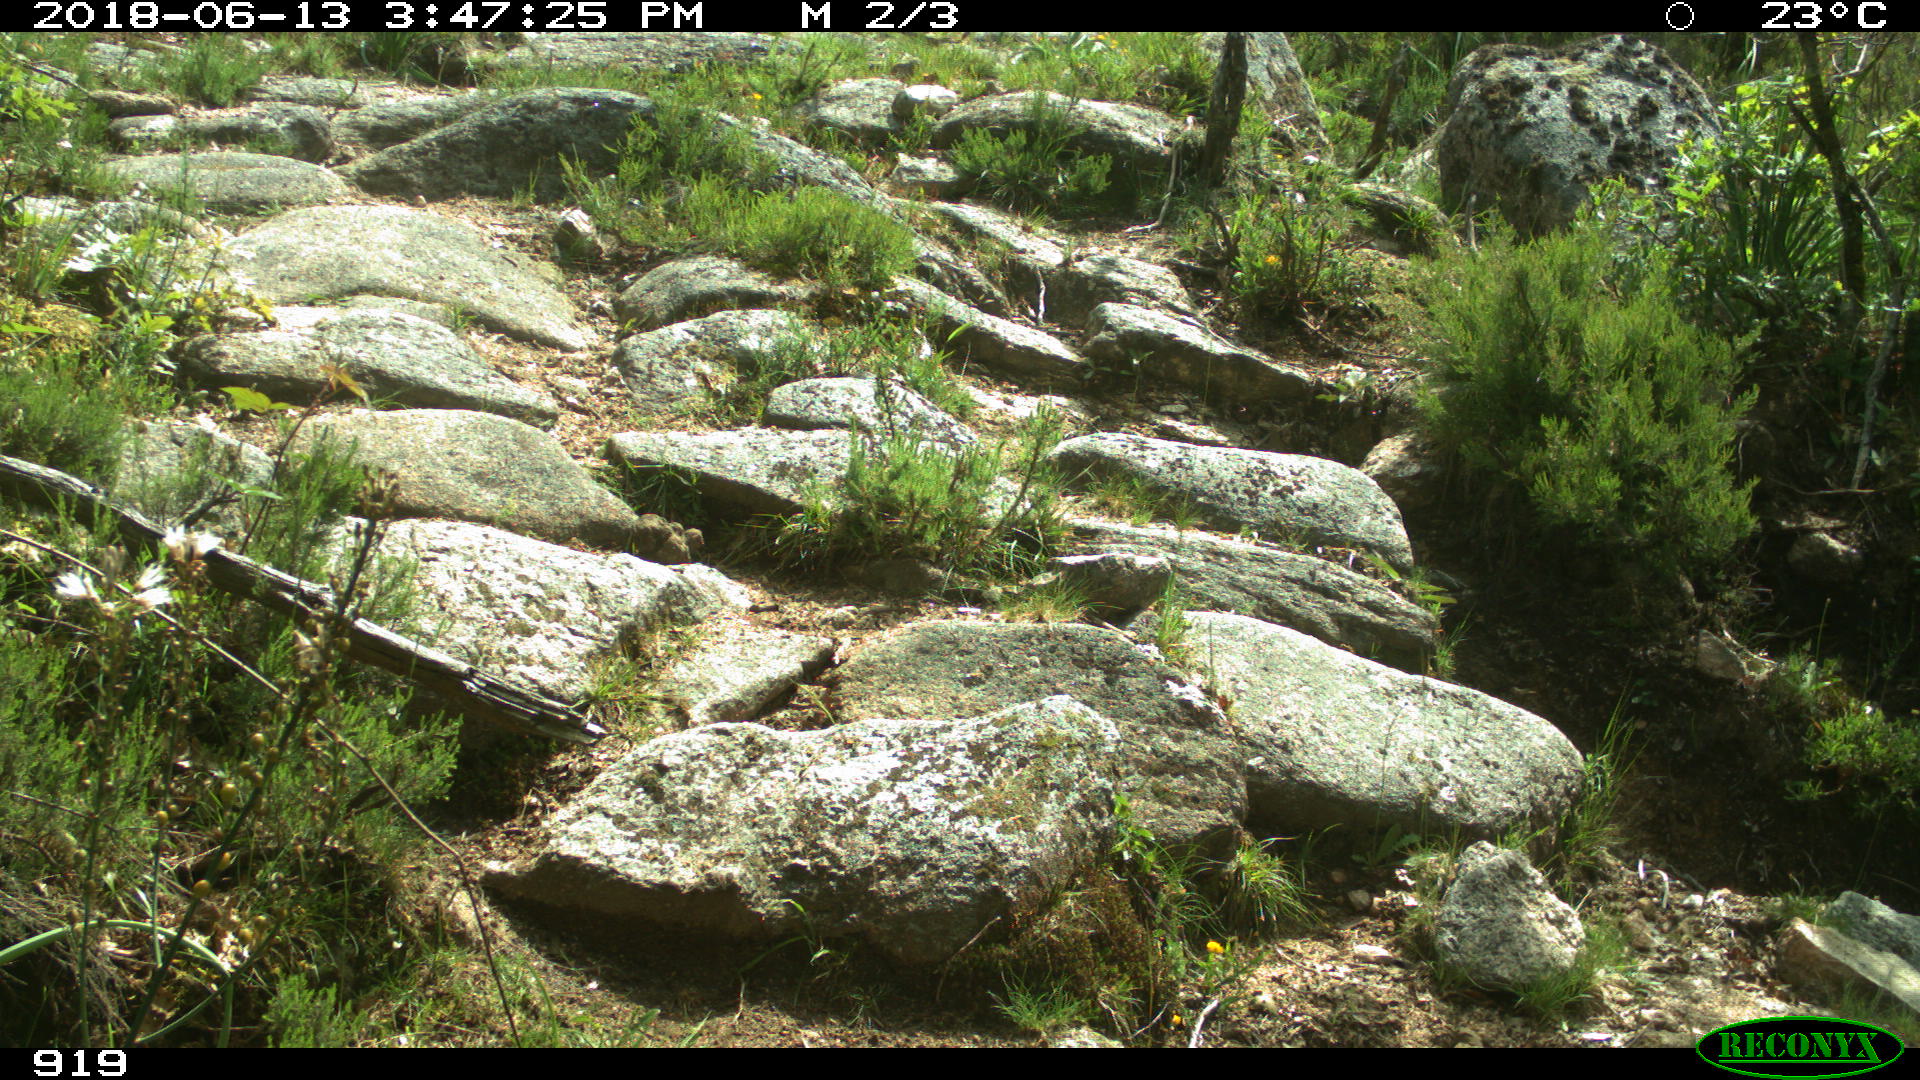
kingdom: Animalia
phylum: Chordata
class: Mammalia
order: Artiodactyla
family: Bovidae
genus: Bos
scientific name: Bos taurus
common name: Domesticated cattle
